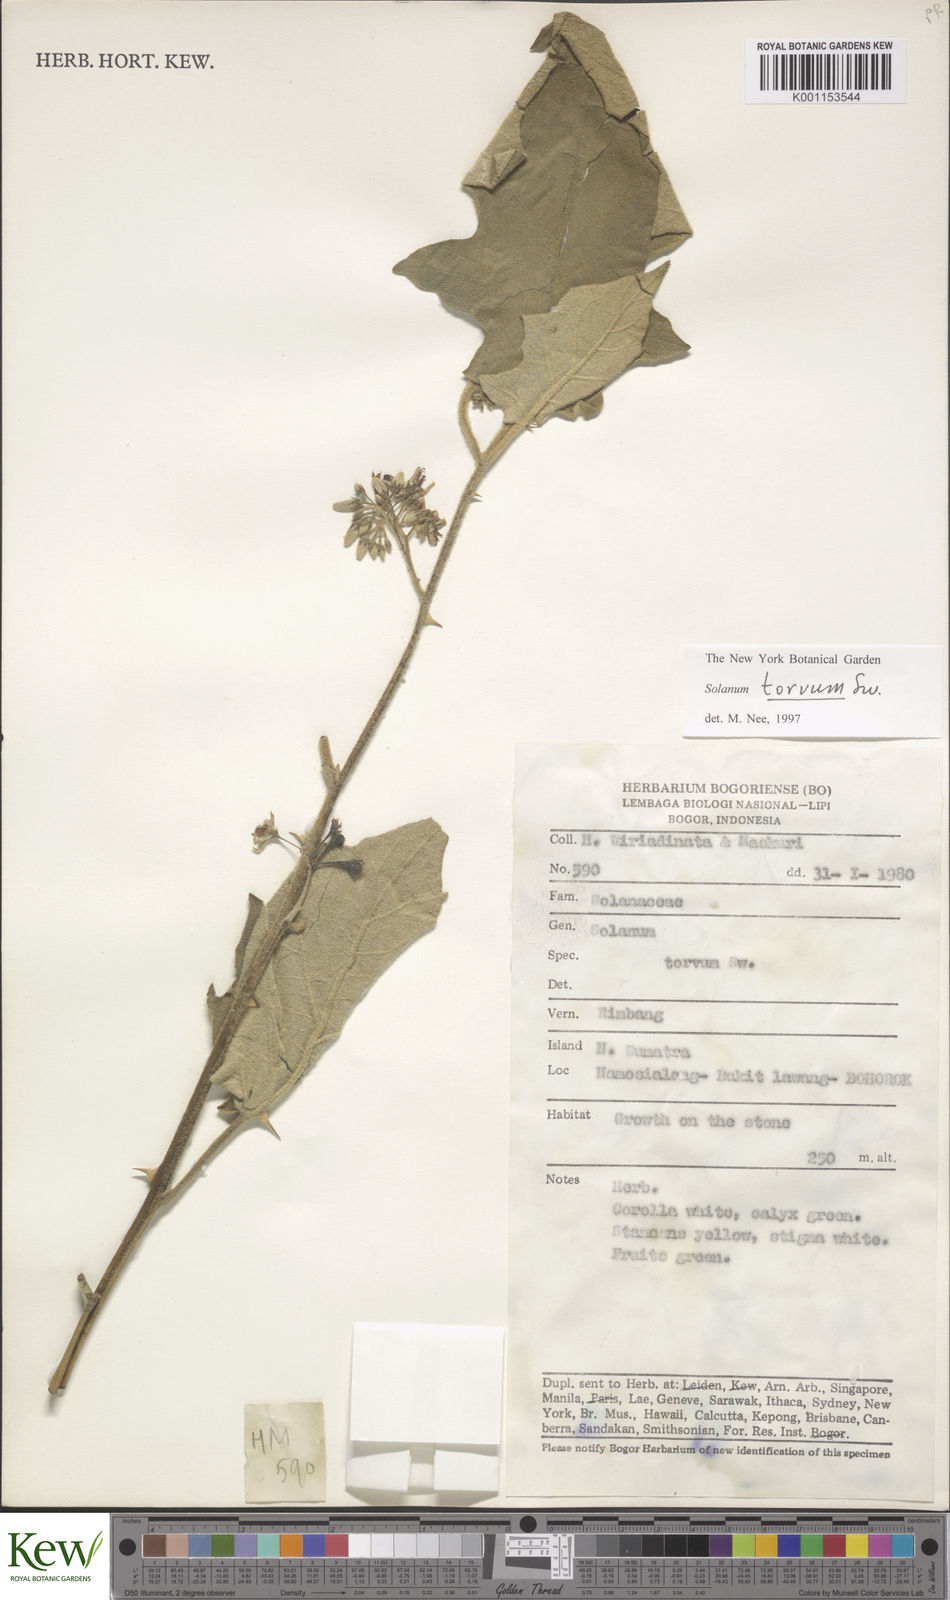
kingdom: Plantae
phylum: Tracheophyta
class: Magnoliopsida
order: Solanales
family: Solanaceae
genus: Solanum
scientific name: Solanum torvum
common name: Turkey berry
